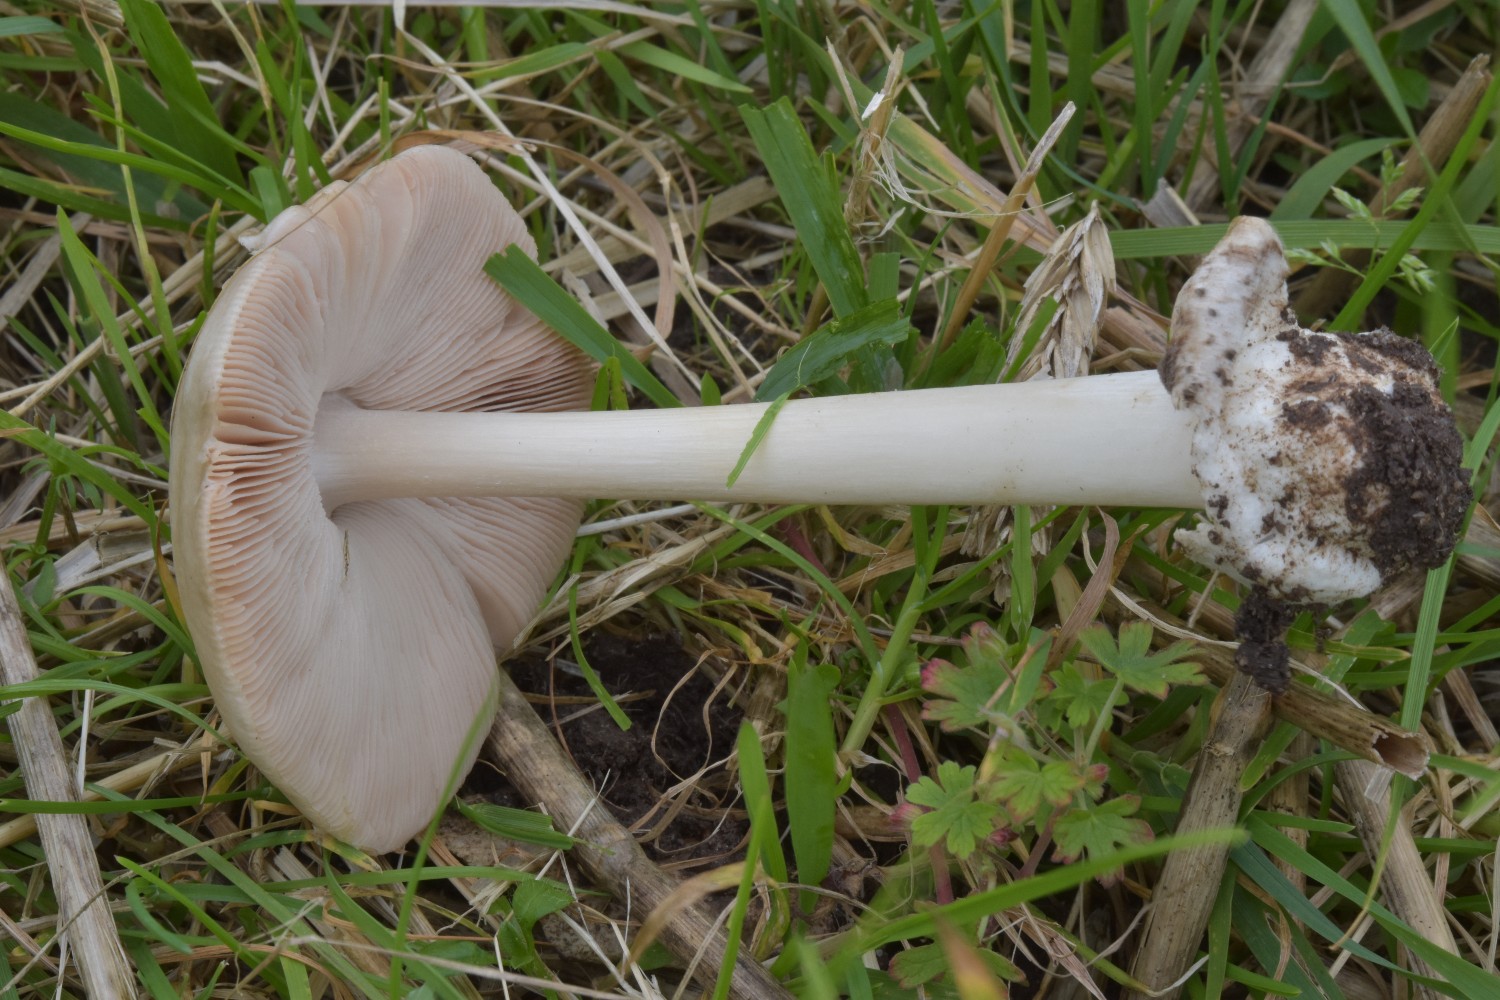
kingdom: Fungi
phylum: Basidiomycota
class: Agaricomycetes
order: Agaricales
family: Pluteaceae
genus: Volvopluteus
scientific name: Volvopluteus gloiocephalus
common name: høj posesvamp
